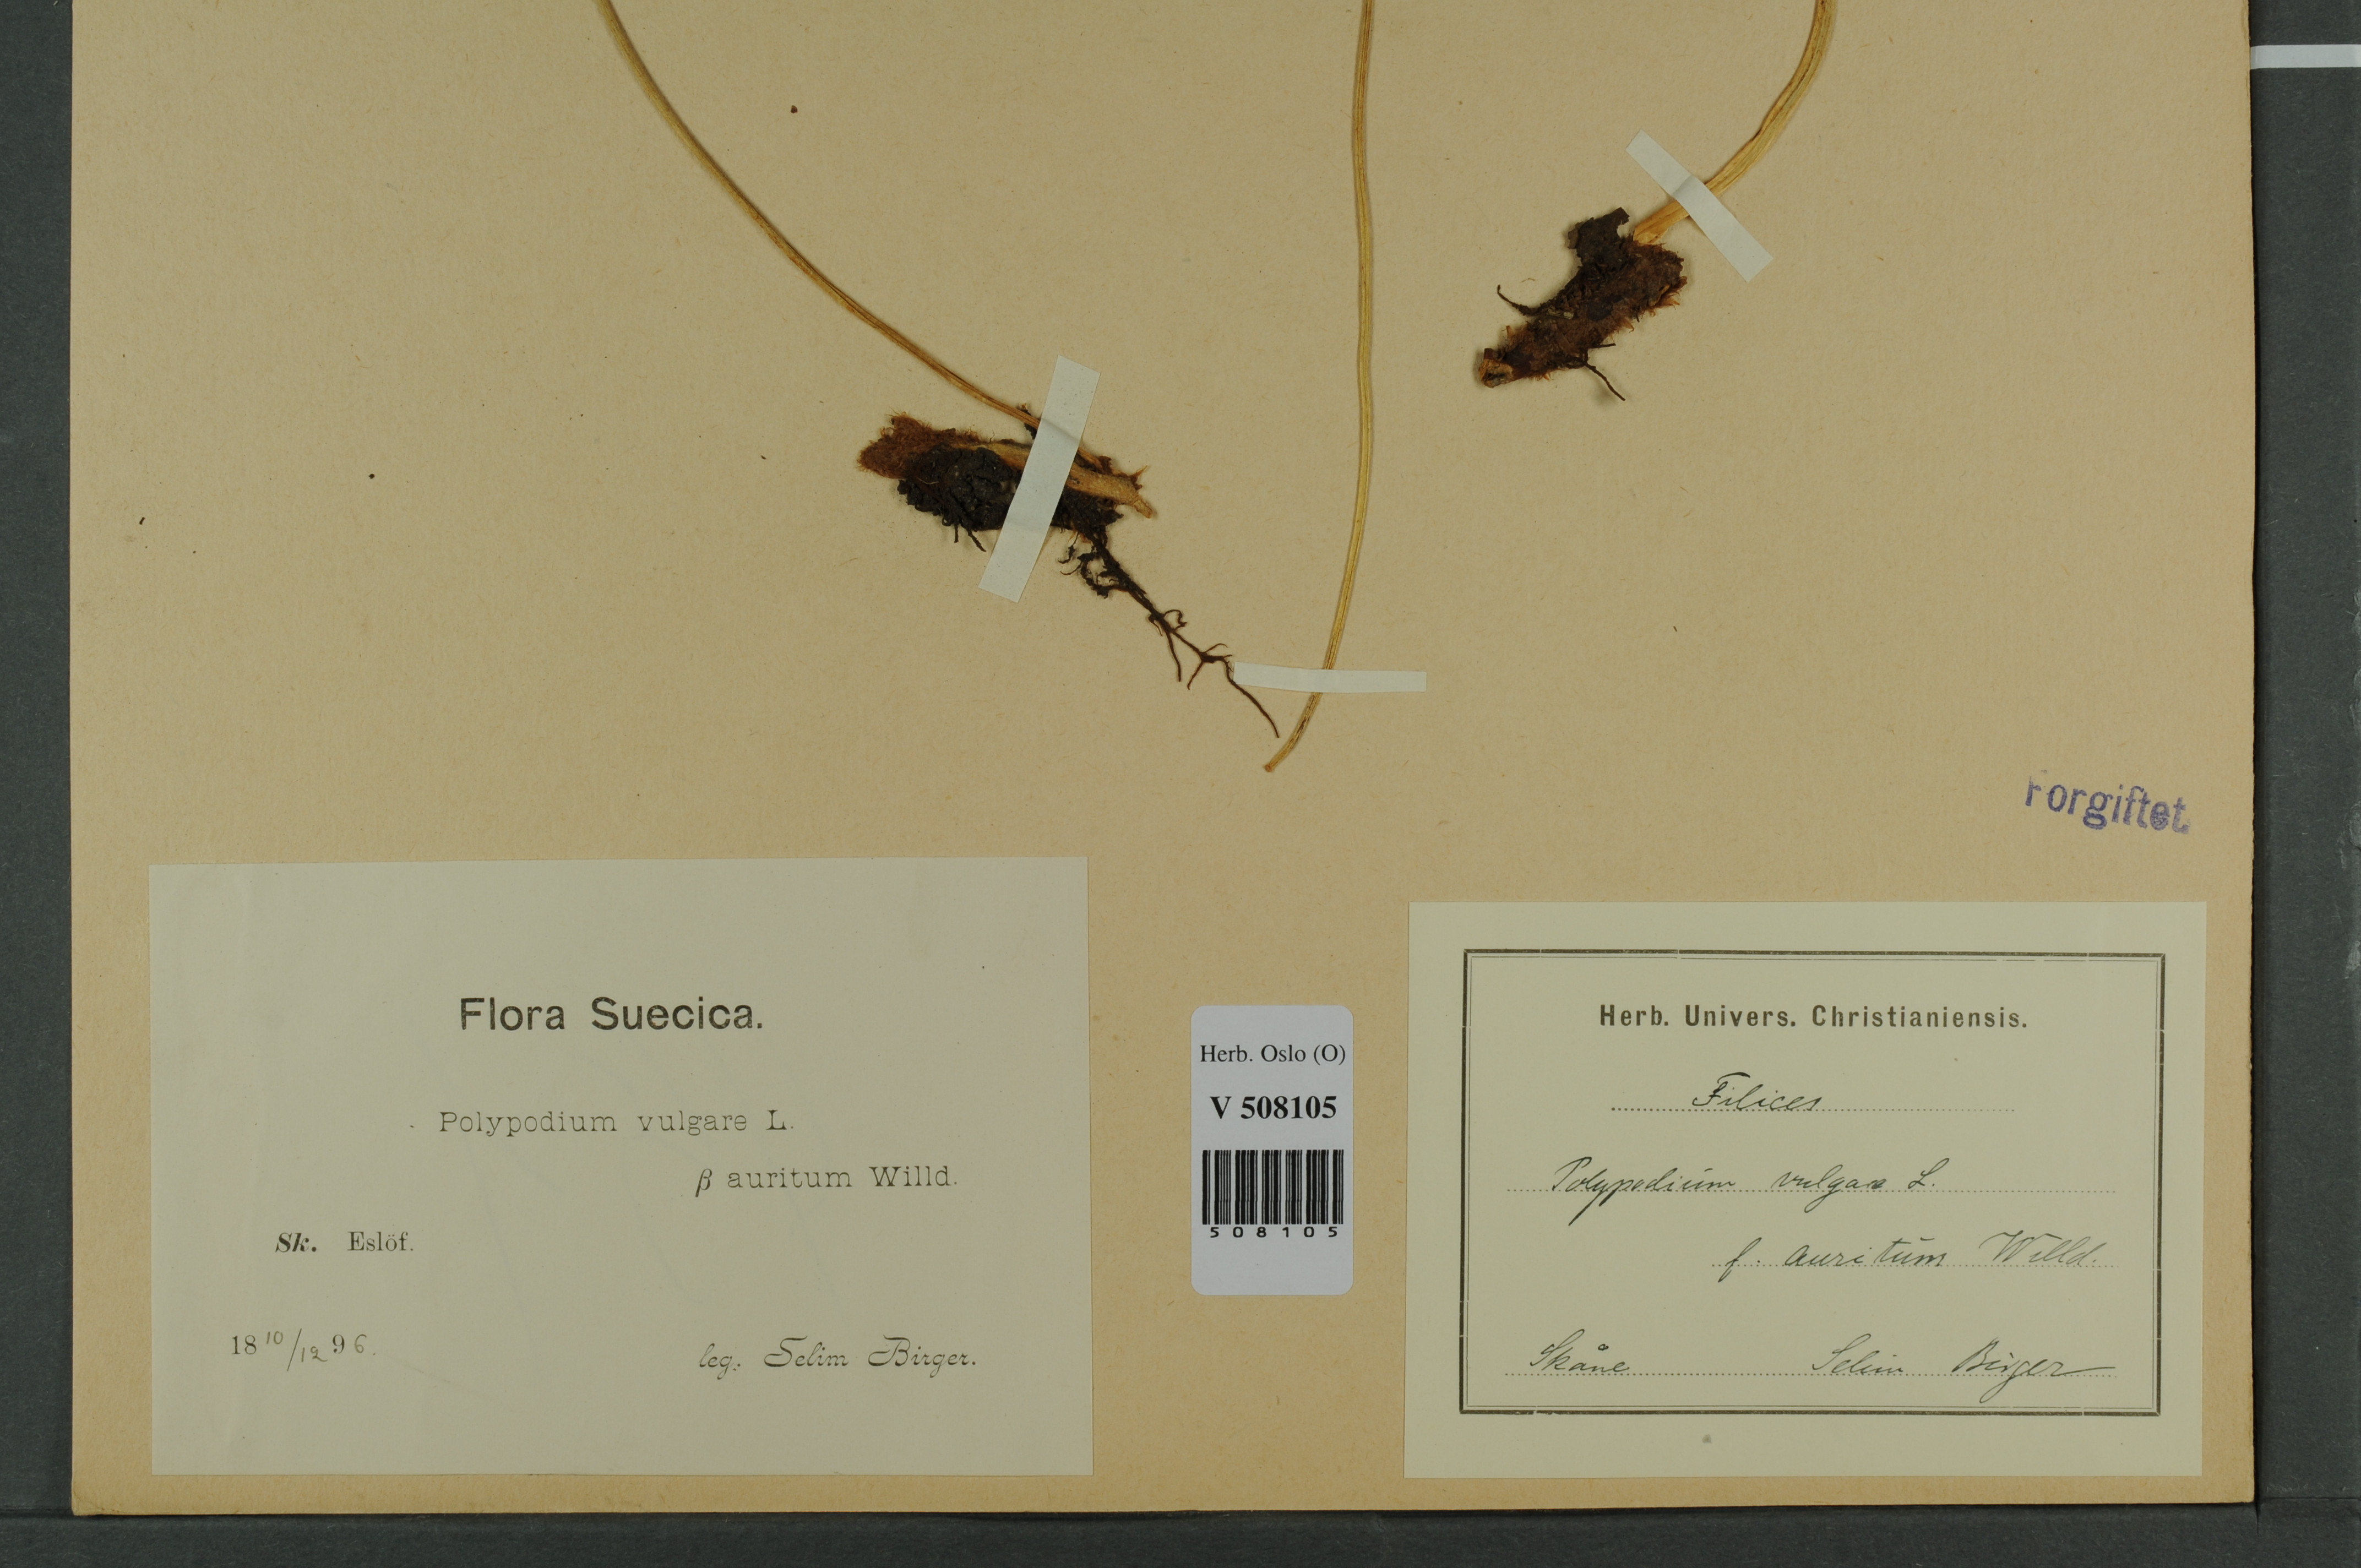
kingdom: Plantae
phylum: Tracheophyta
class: Polypodiopsida
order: Polypodiales
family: Polypodiaceae
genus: Polypodium
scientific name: Polypodium vulgare
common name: Common polypody
